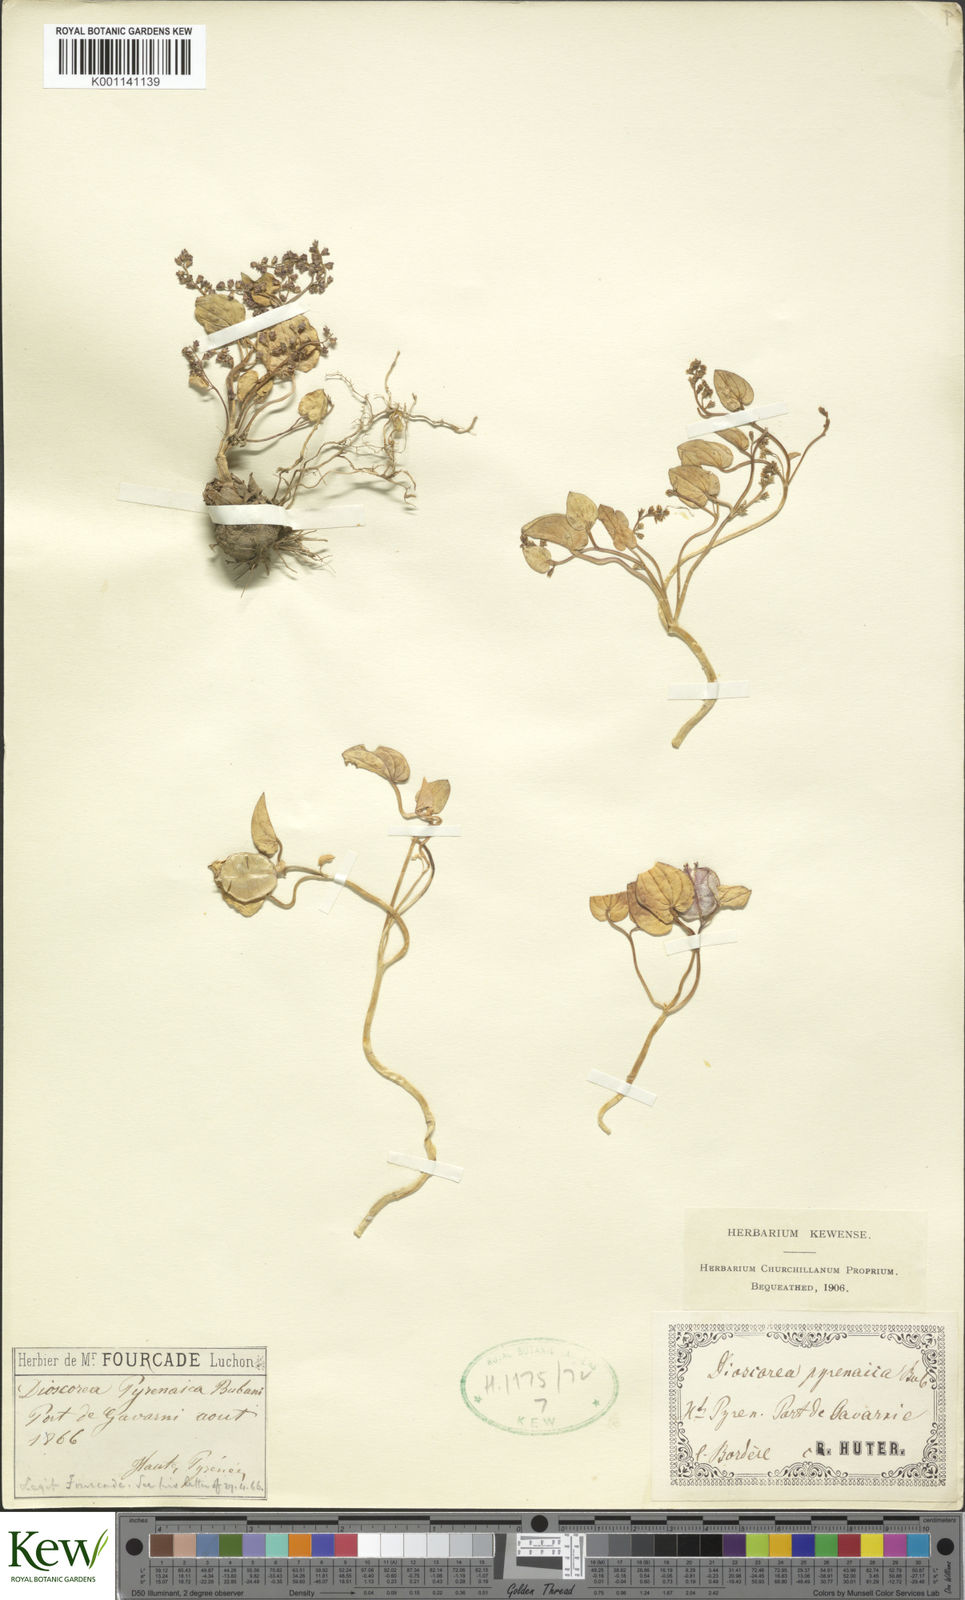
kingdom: Plantae
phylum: Tracheophyta
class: Liliopsida
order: Dioscoreales
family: Dioscoreaceae
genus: Dioscorea
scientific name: Dioscorea
